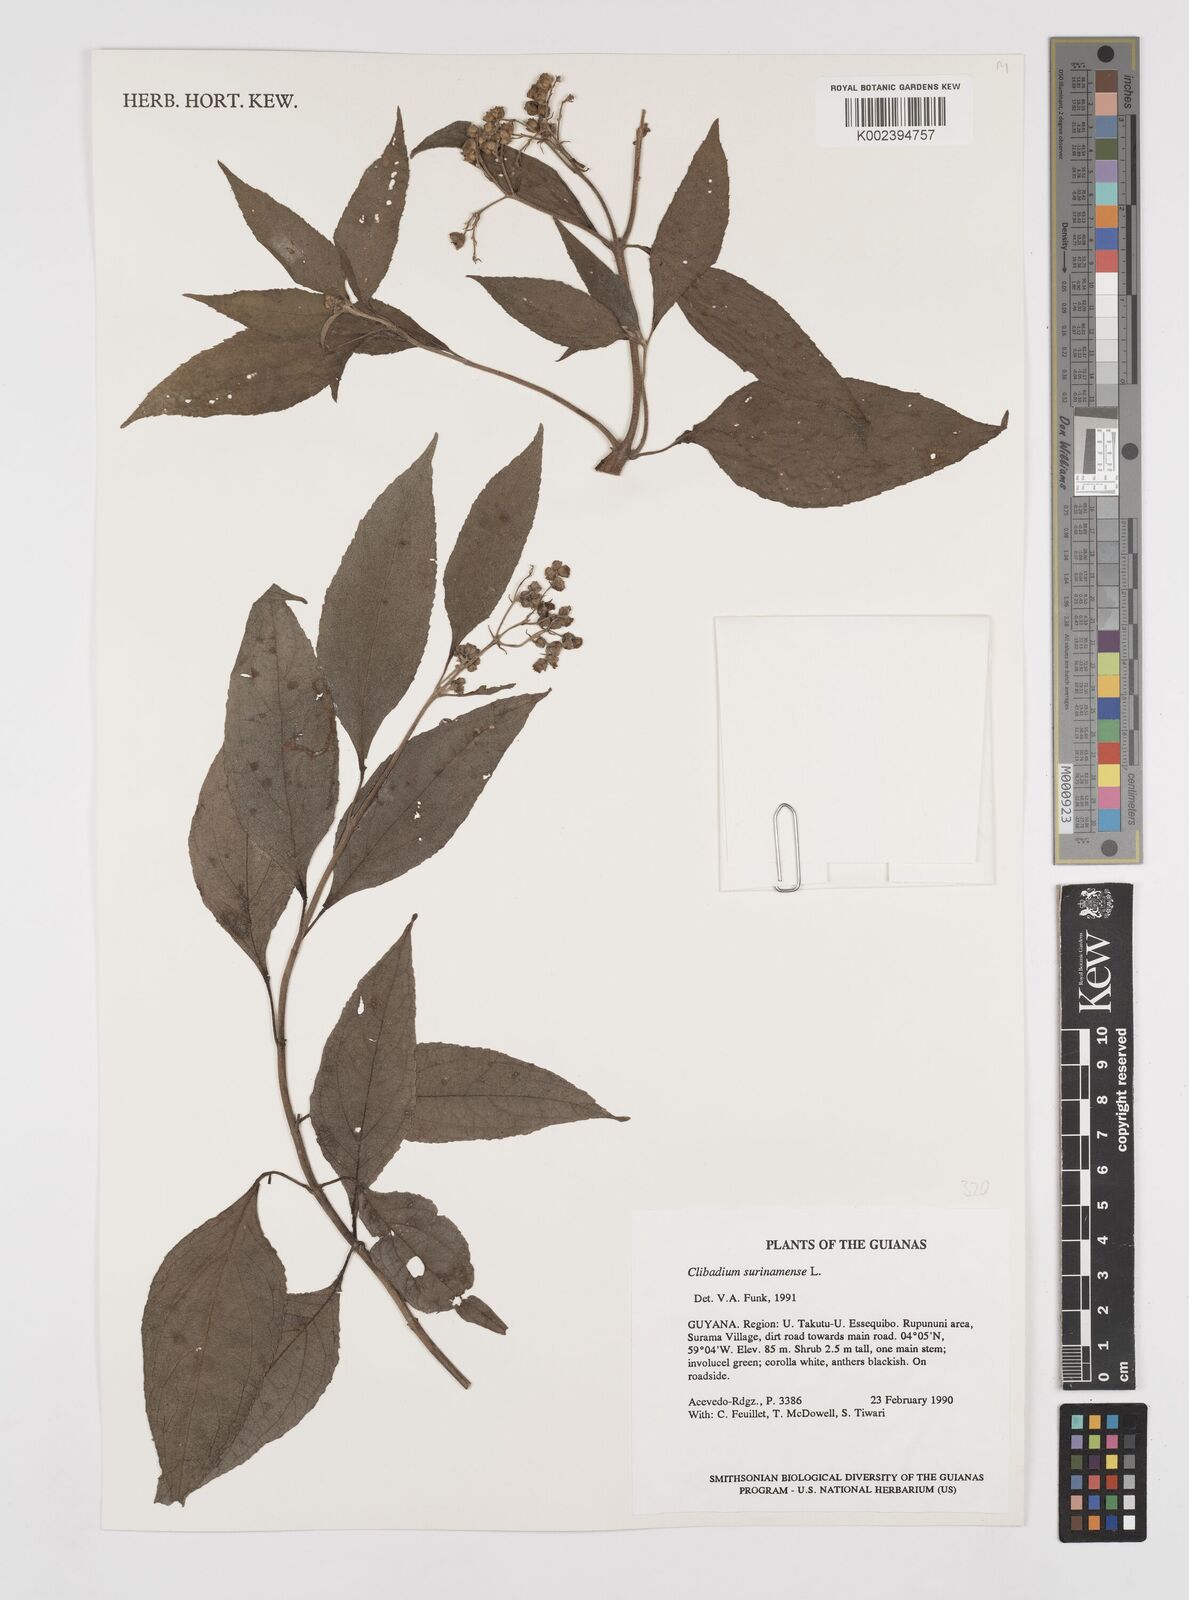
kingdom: Plantae
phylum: Tracheophyta
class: Magnoliopsida
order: Asterales
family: Asteraceae
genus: Clibadium
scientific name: Clibadium surinamense
